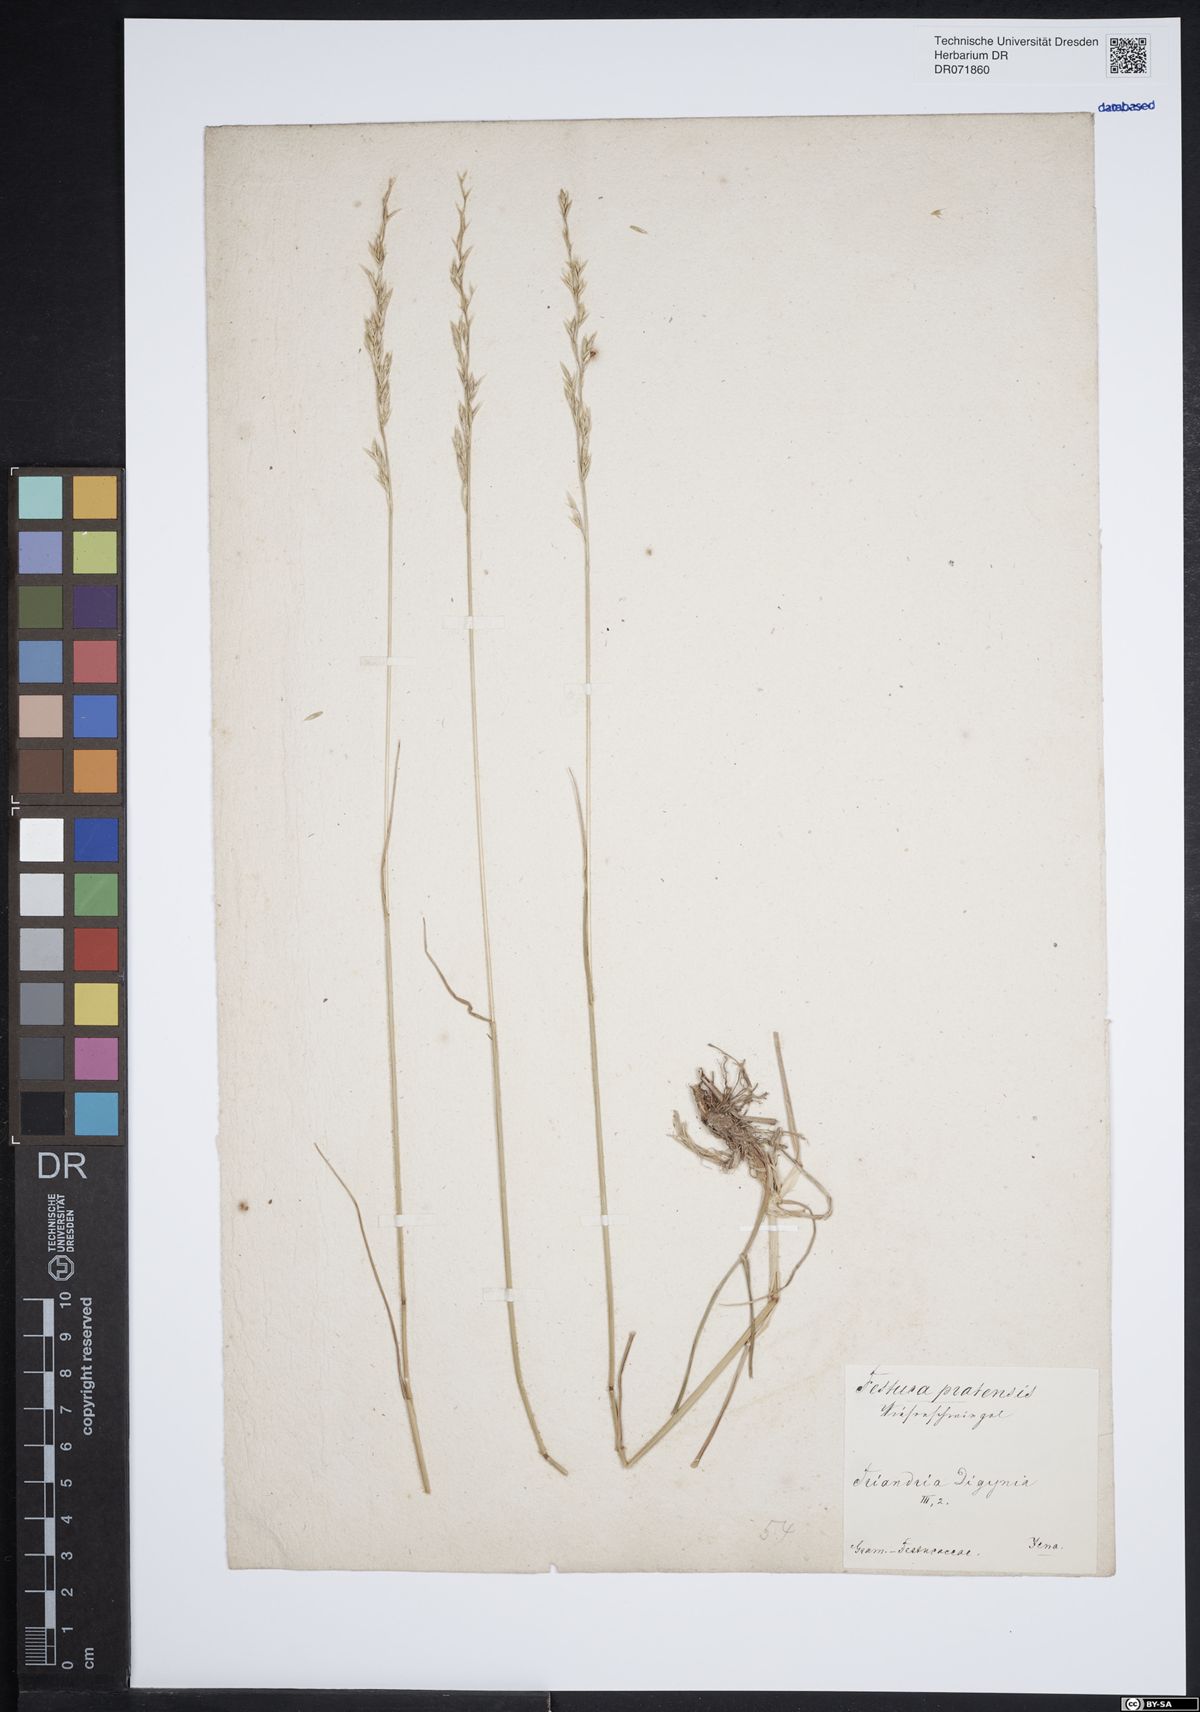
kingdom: Plantae
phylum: Tracheophyta
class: Liliopsida
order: Poales
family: Poaceae
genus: Lolium
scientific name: Lolium pratense
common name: Dover grass
